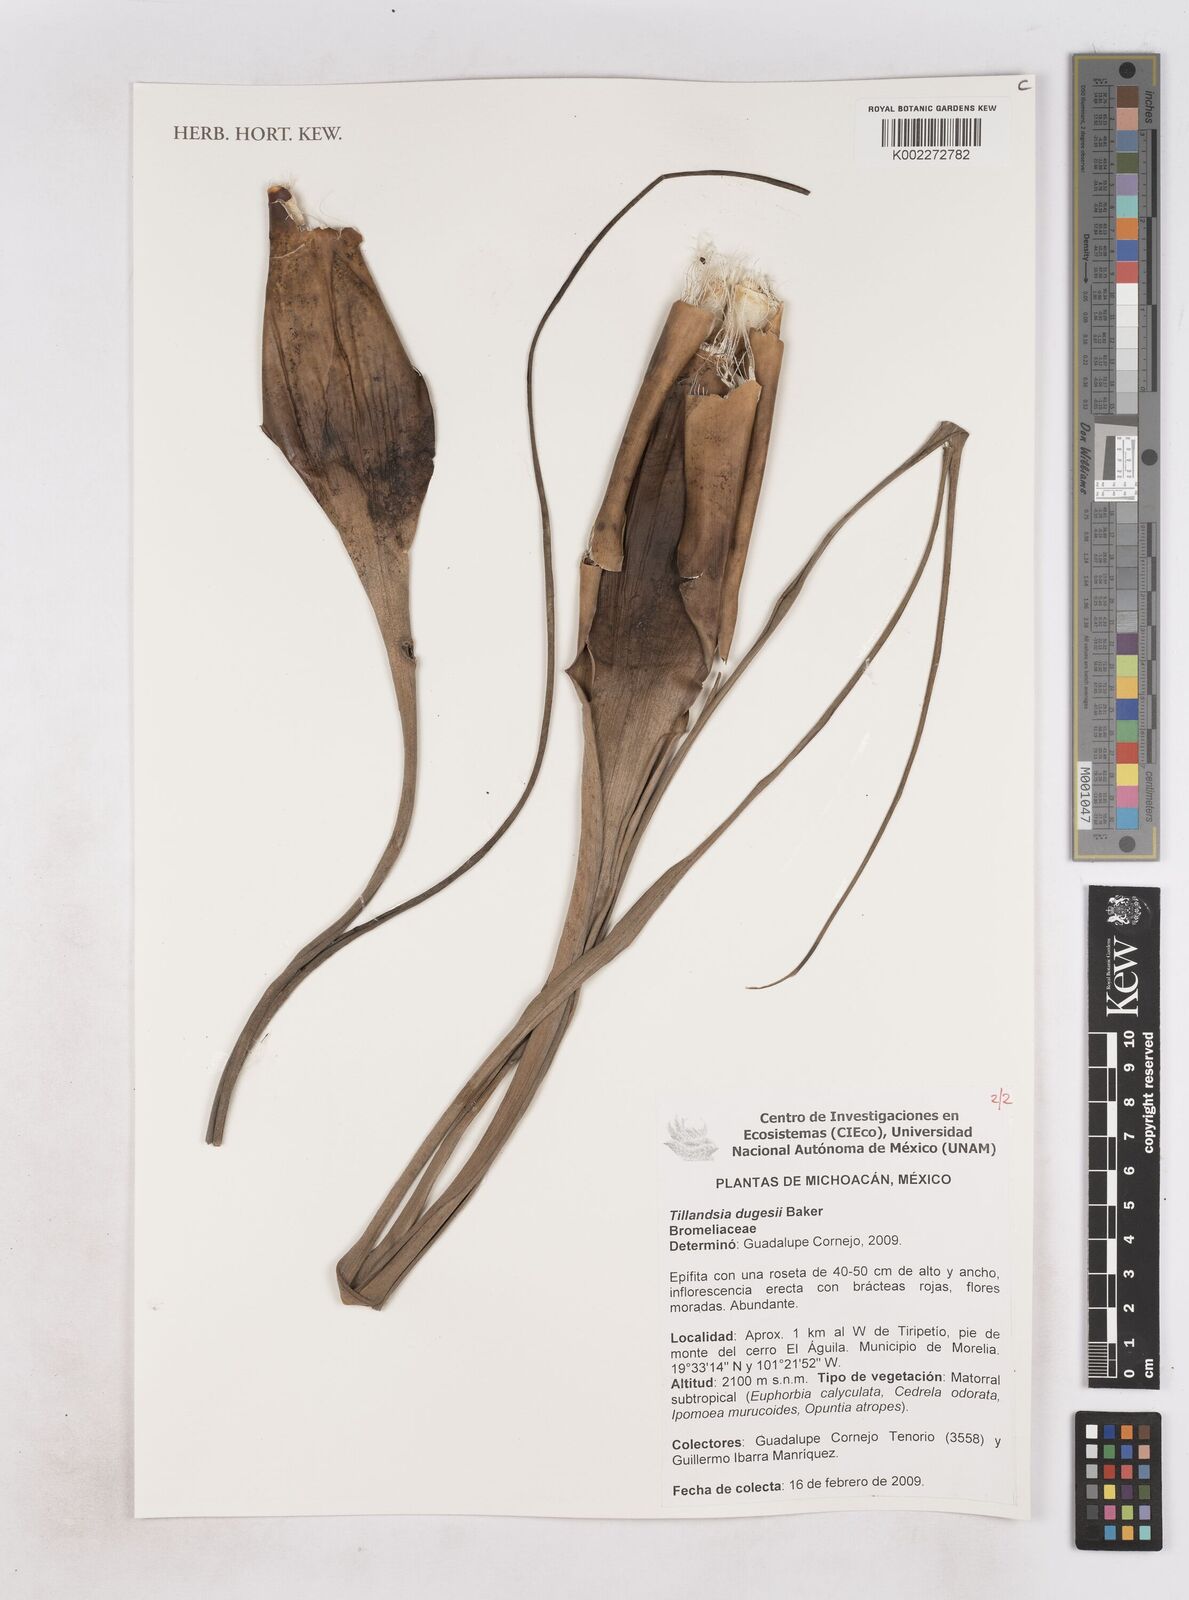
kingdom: Plantae
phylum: Tracheophyta
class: Liliopsida
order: Poales
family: Bromeliaceae
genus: Tillandsia
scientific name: Tillandsia dugesii
